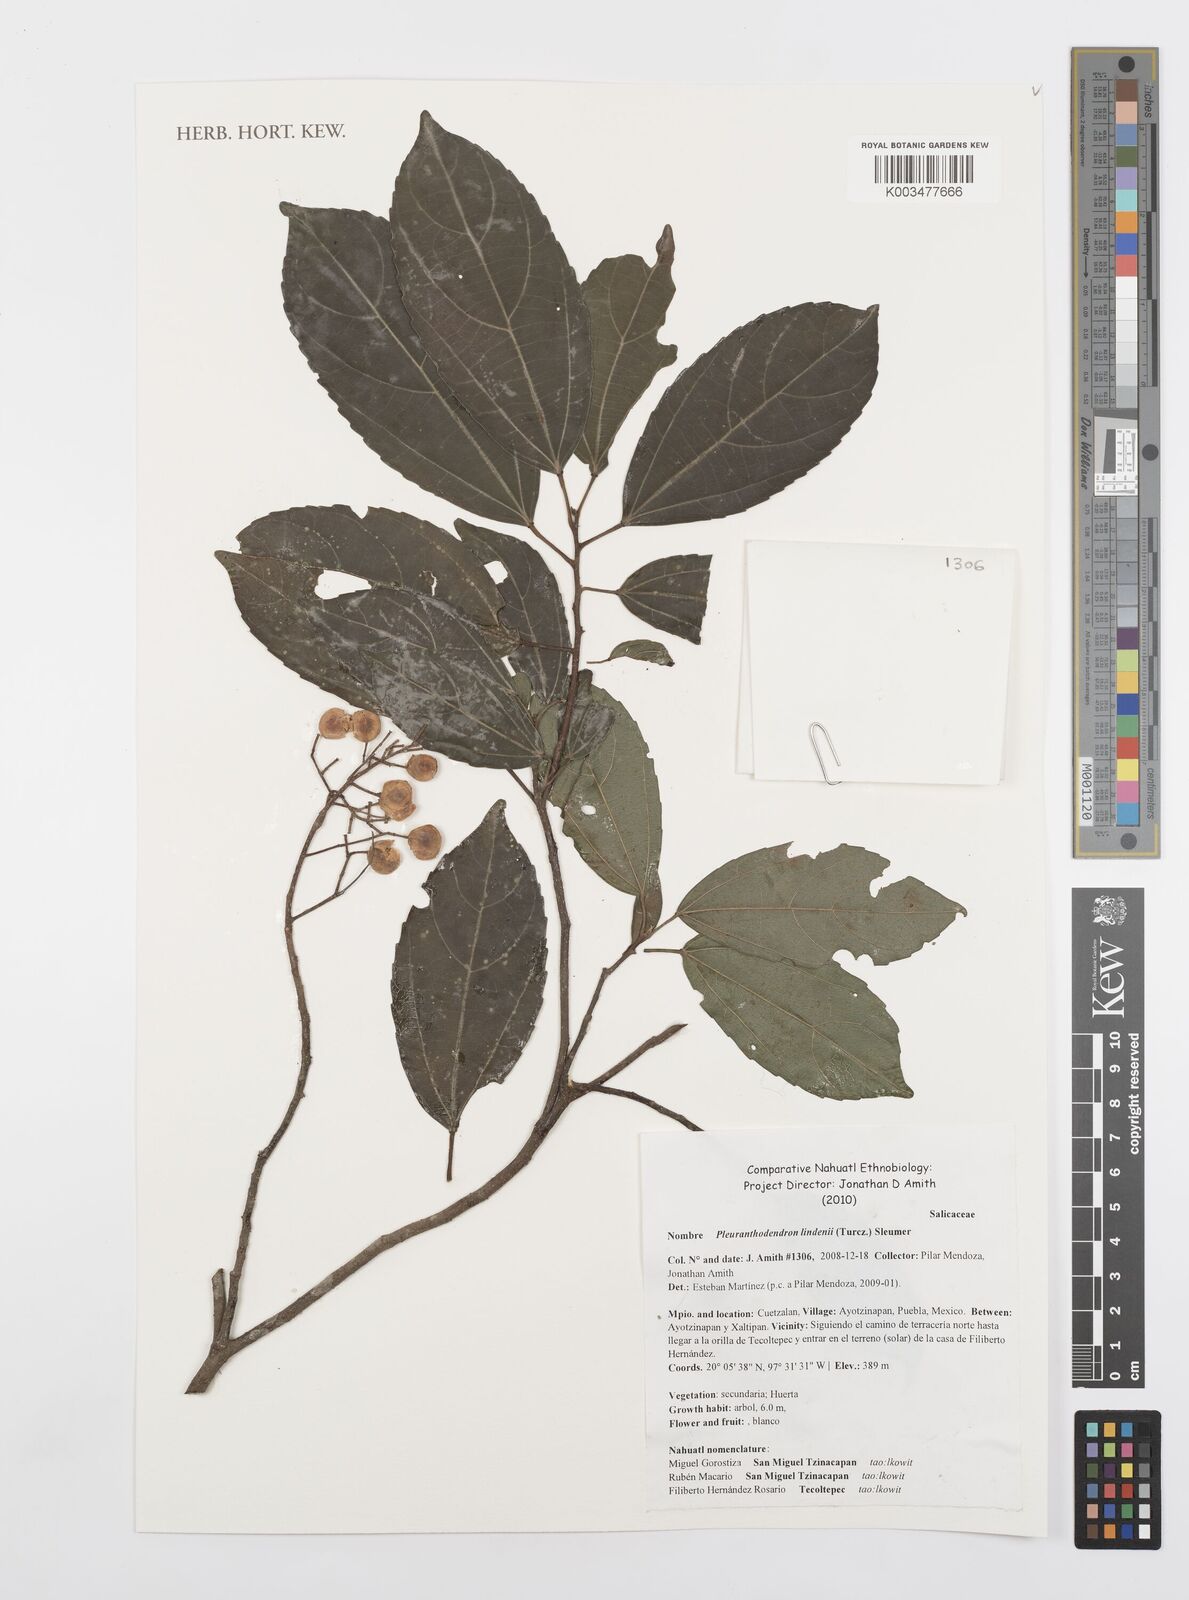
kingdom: Plantae
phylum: Tracheophyta
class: Magnoliopsida
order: Malpighiales
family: Salicaceae
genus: Pleuranthodendron
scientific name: Pleuranthodendron lindenii
